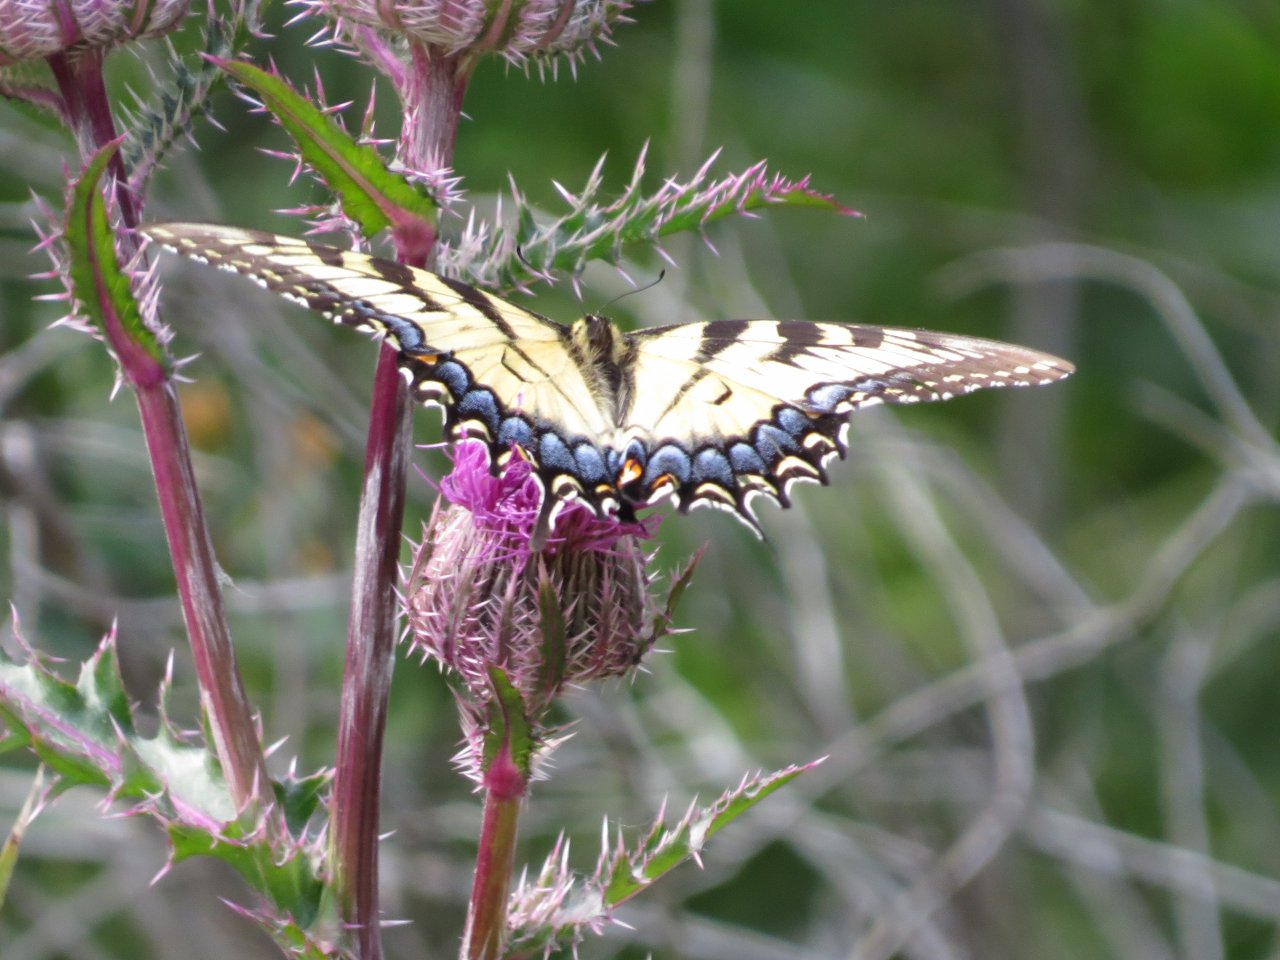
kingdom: Animalia
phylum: Arthropoda
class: Insecta
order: Lepidoptera
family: Papilionidae
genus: Pterourus
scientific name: Pterourus glaucus
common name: Eastern Tiger Swallowtail
